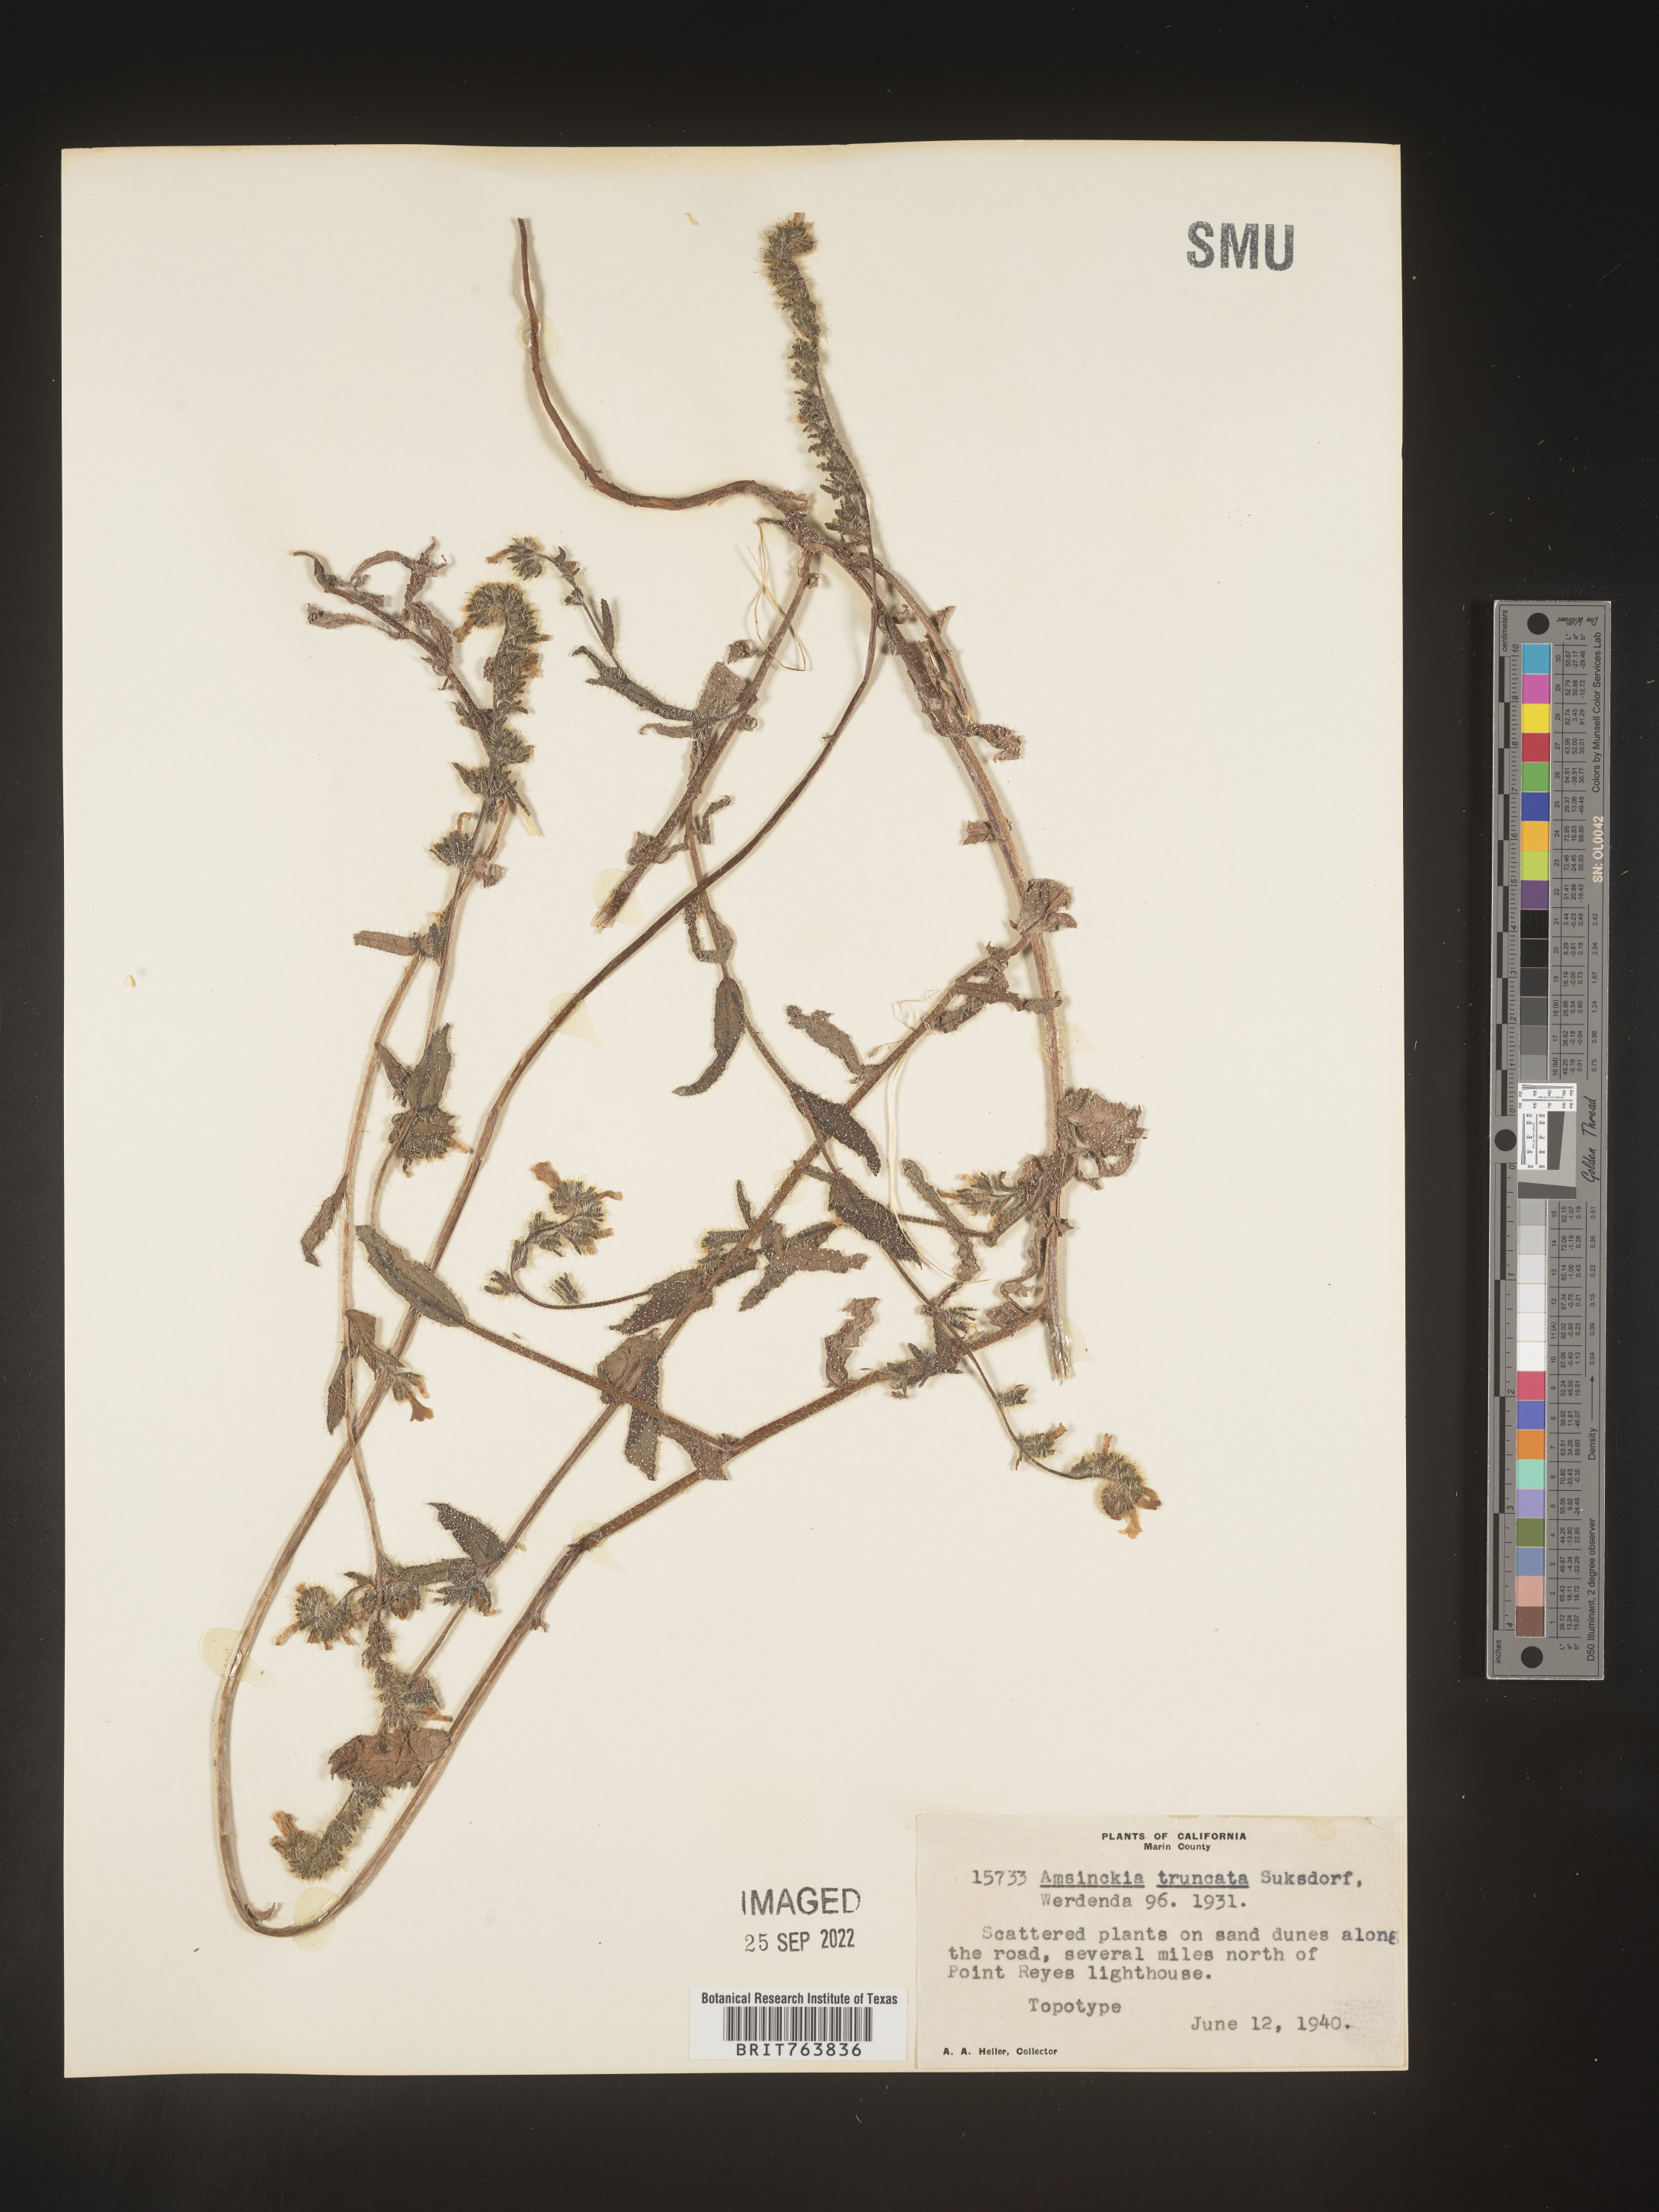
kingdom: Plantae
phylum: Tracheophyta
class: Magnoliopsida
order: Boraginales
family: Boraginaceae
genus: Amsinckia
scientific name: Amsinckia
